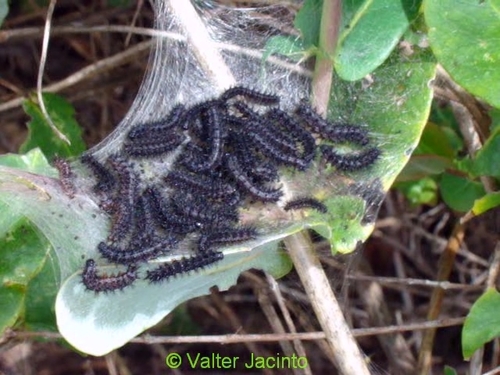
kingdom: Animalia
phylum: Arthropoda
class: Insecta
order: Lepidoptera
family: Nymphalidae
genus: Euphydryas
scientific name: Euphydryas aurinia
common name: Marsh fritillary
